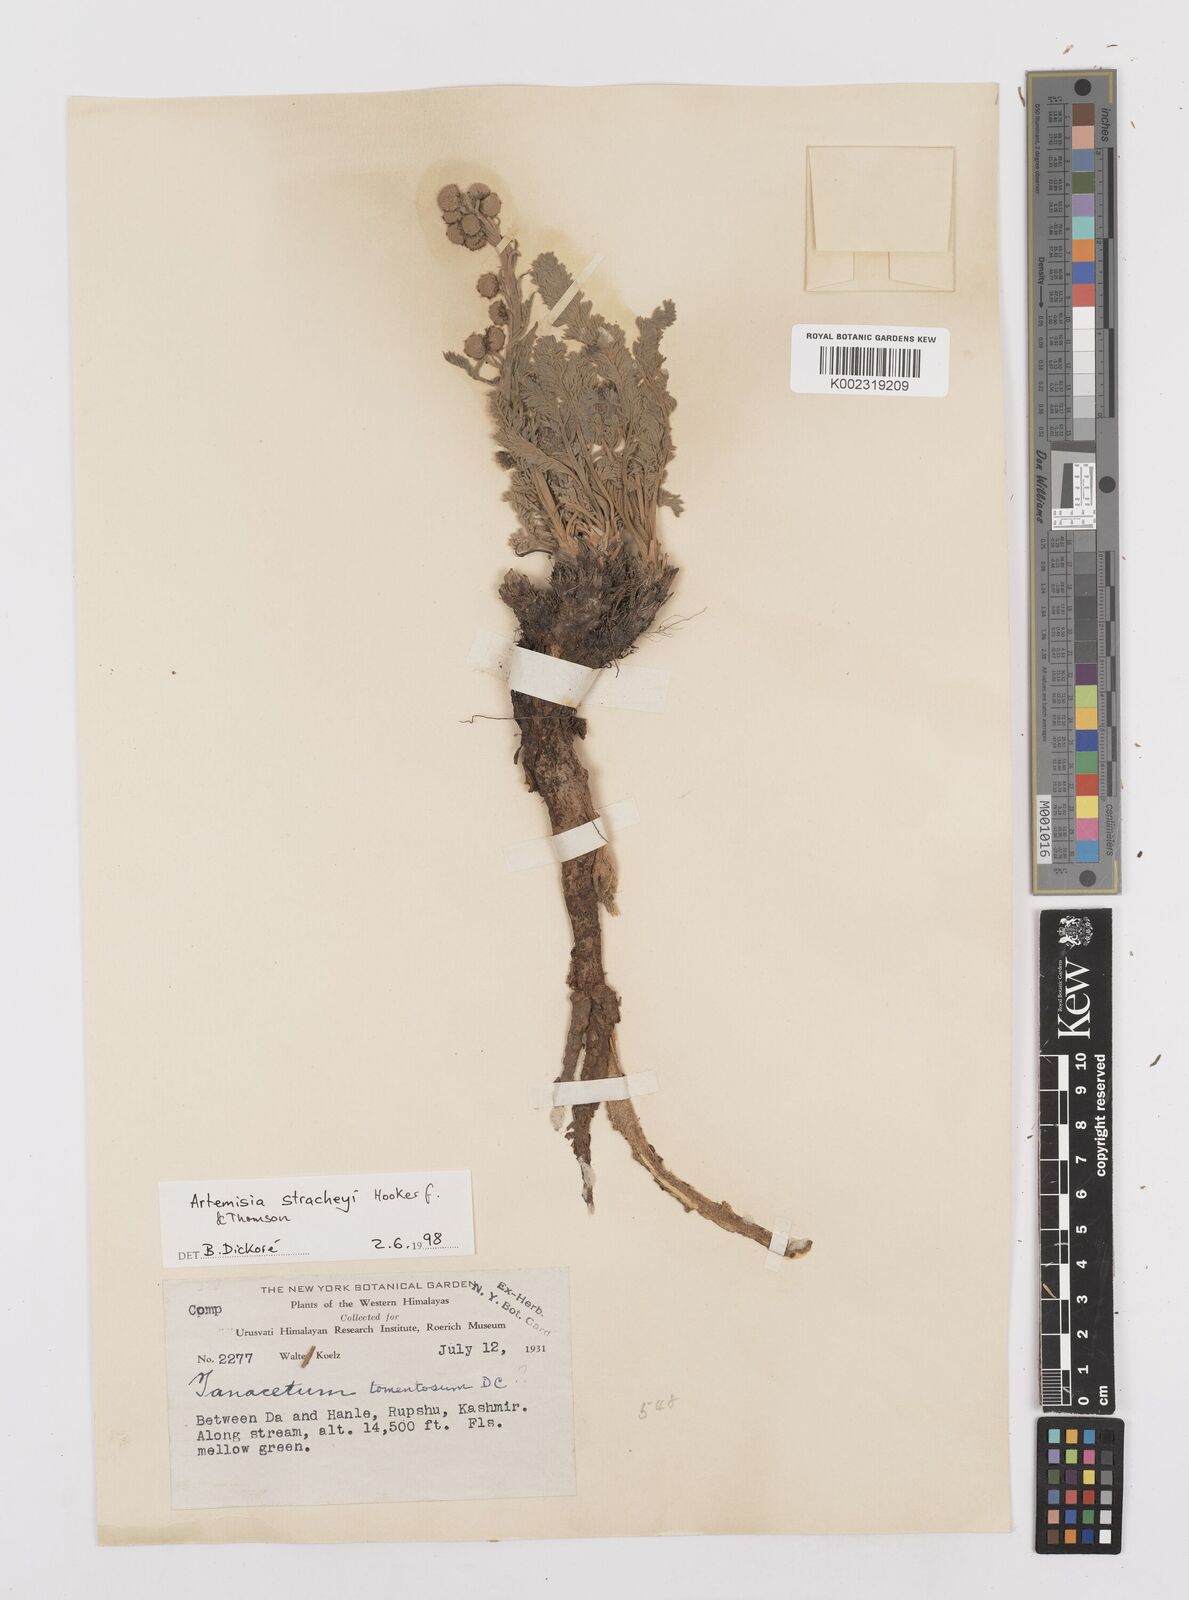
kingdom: Plantae
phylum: Tracheophyta
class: Magnoliopsida
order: Asterales
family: Asteraceae
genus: Artemisiella
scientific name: Artemisiella stracheyi
